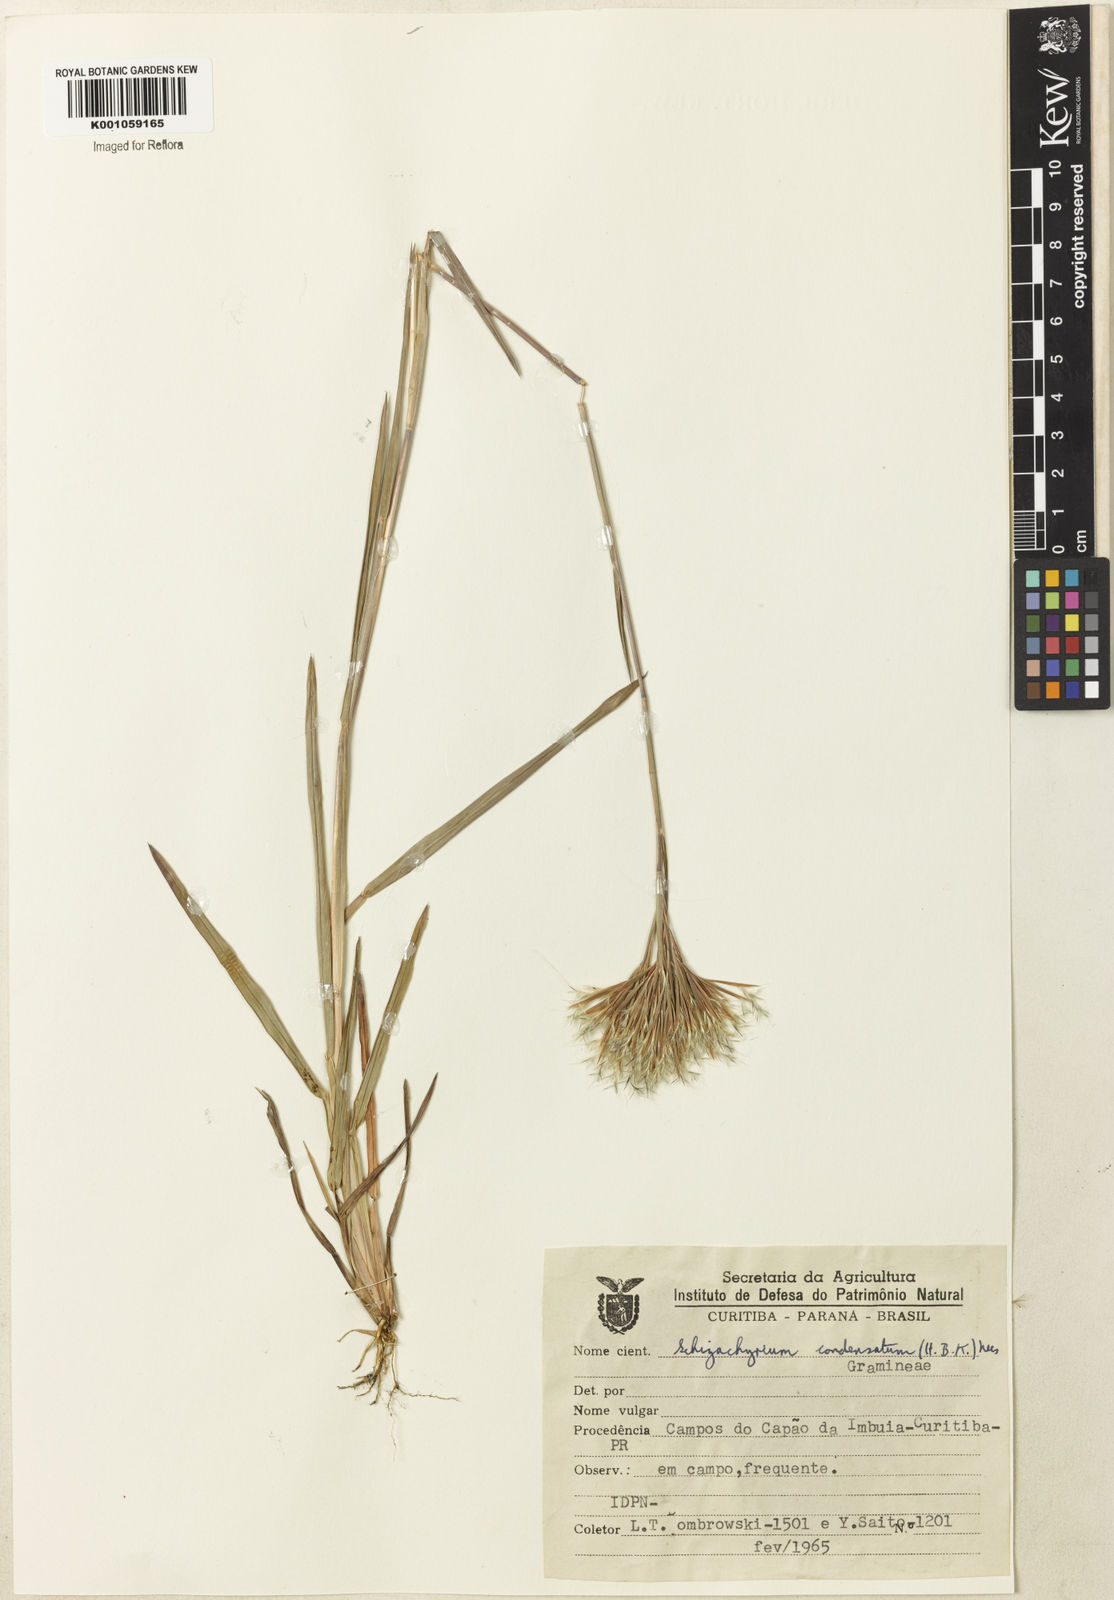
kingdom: Plantae
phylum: Tracheophyta
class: Liliopsida
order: Poales
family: Poaceae
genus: Schizachyrium
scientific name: Schizachyrium condensatum
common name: Bush beardgrass
